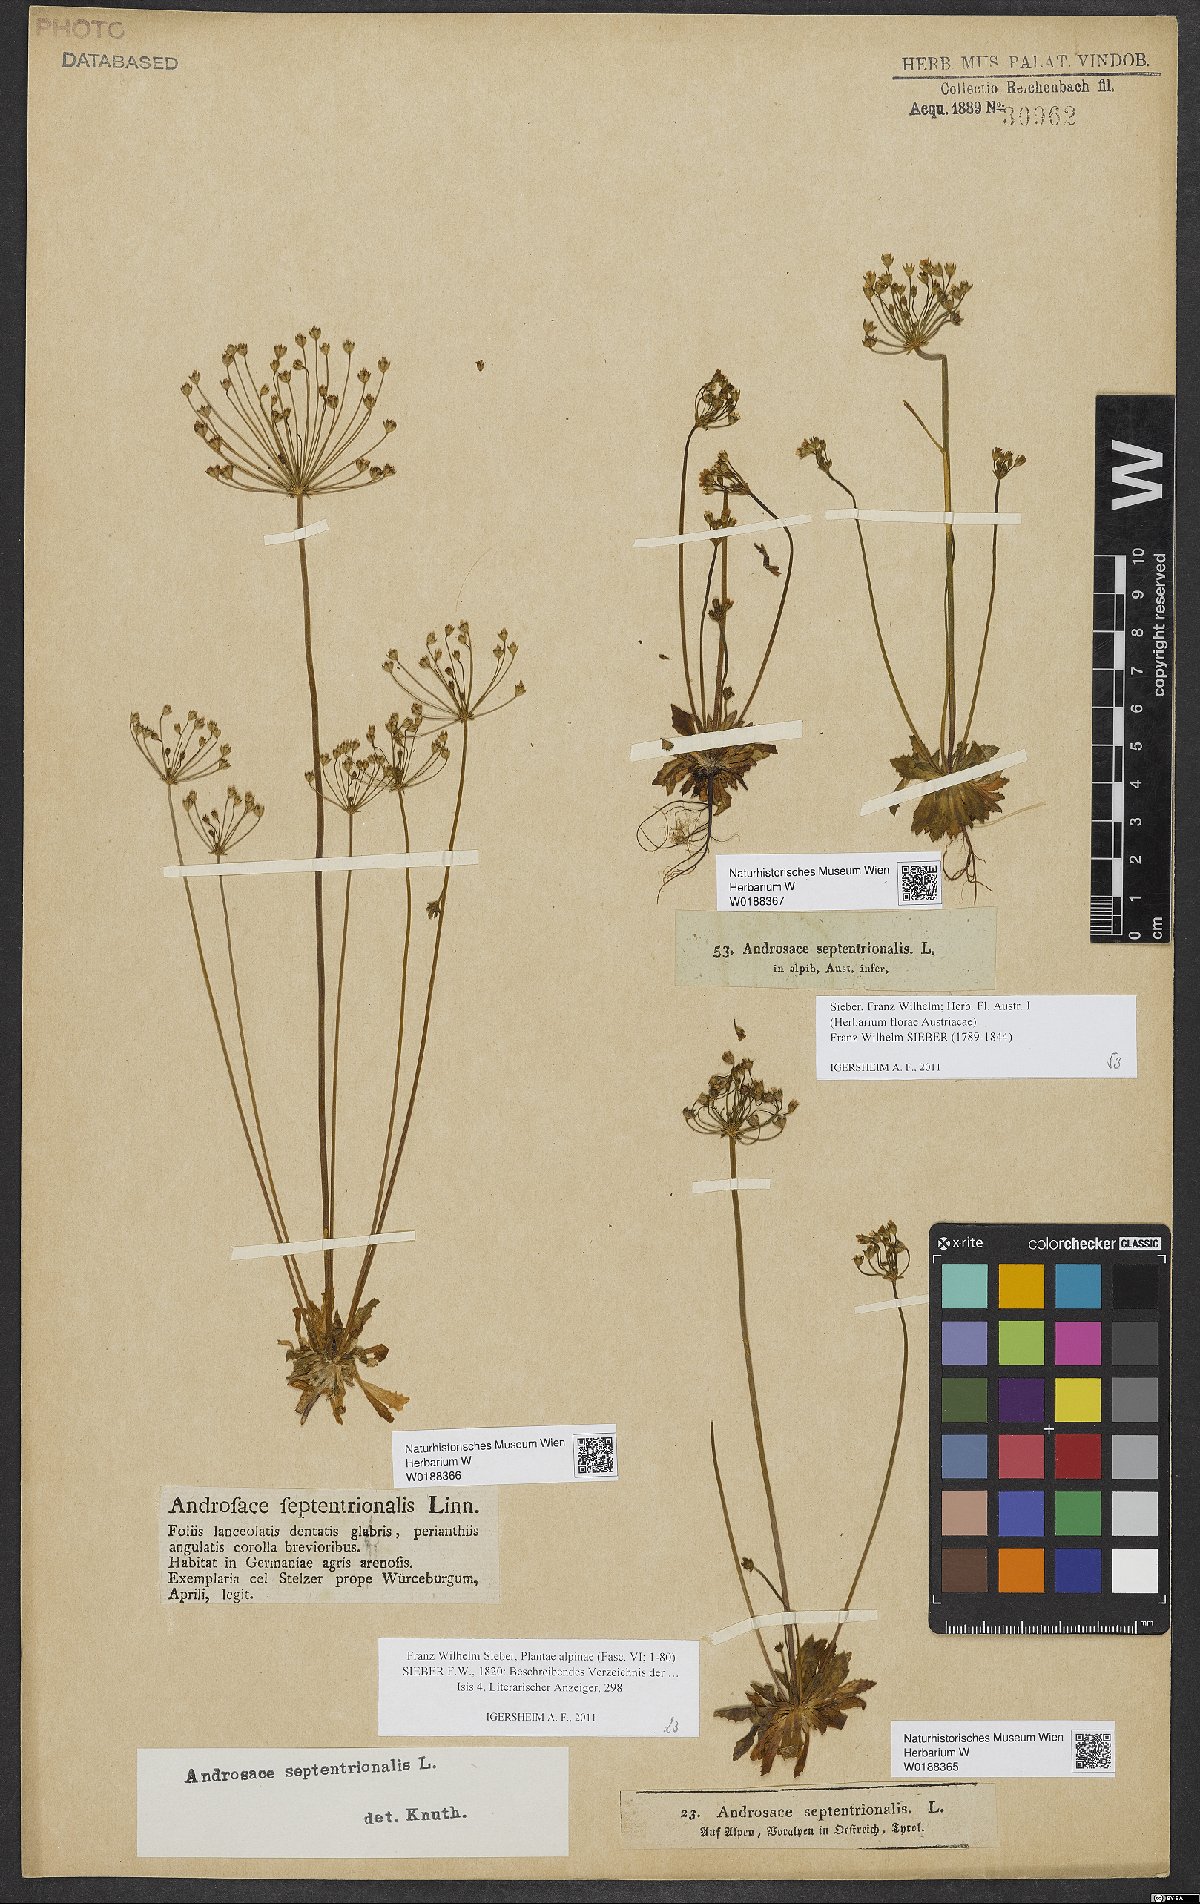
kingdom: Plantae
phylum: Tracheophyta
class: Magnoliopsida
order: Ericales
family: Primulaceae
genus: Androsace
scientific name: Androsace septentrionalis
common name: Hairy northern fairy-candelabra
